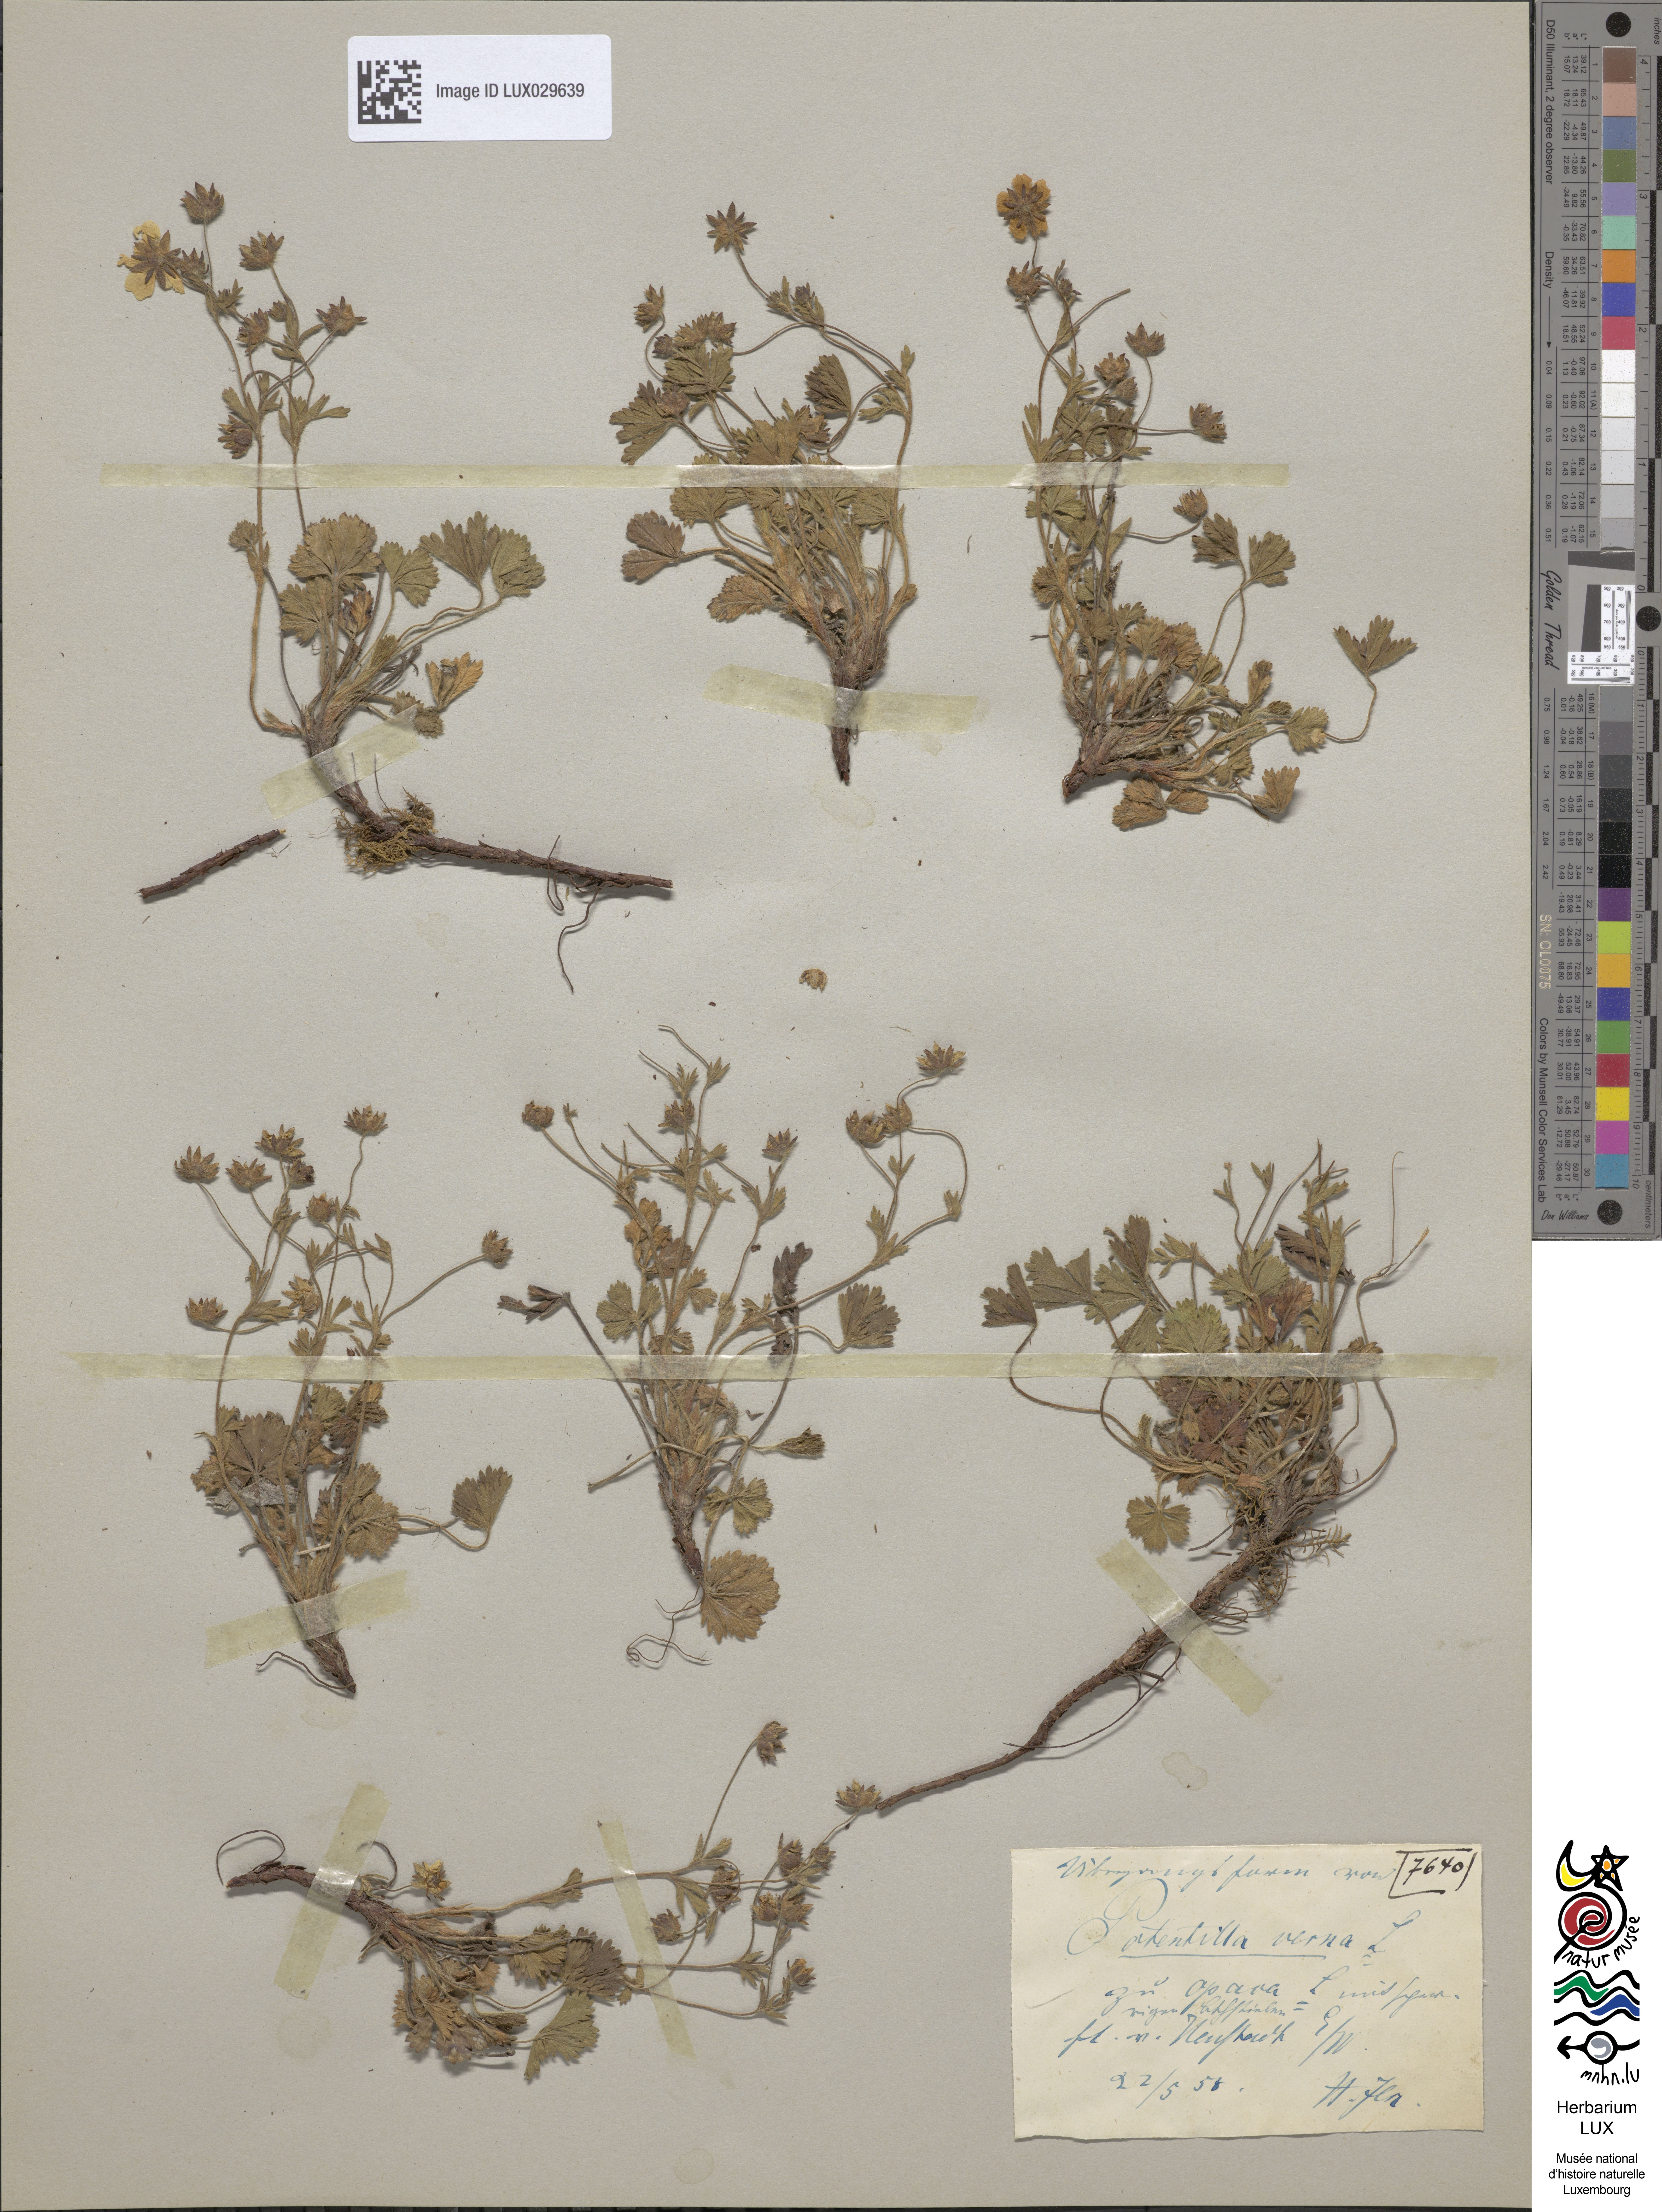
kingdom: Plantae
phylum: Tracheophyta
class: Magnoliopsida
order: Rosales
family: Rosaceae
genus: Potentilla
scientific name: Potentilla verna
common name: Spring cinquefoil
